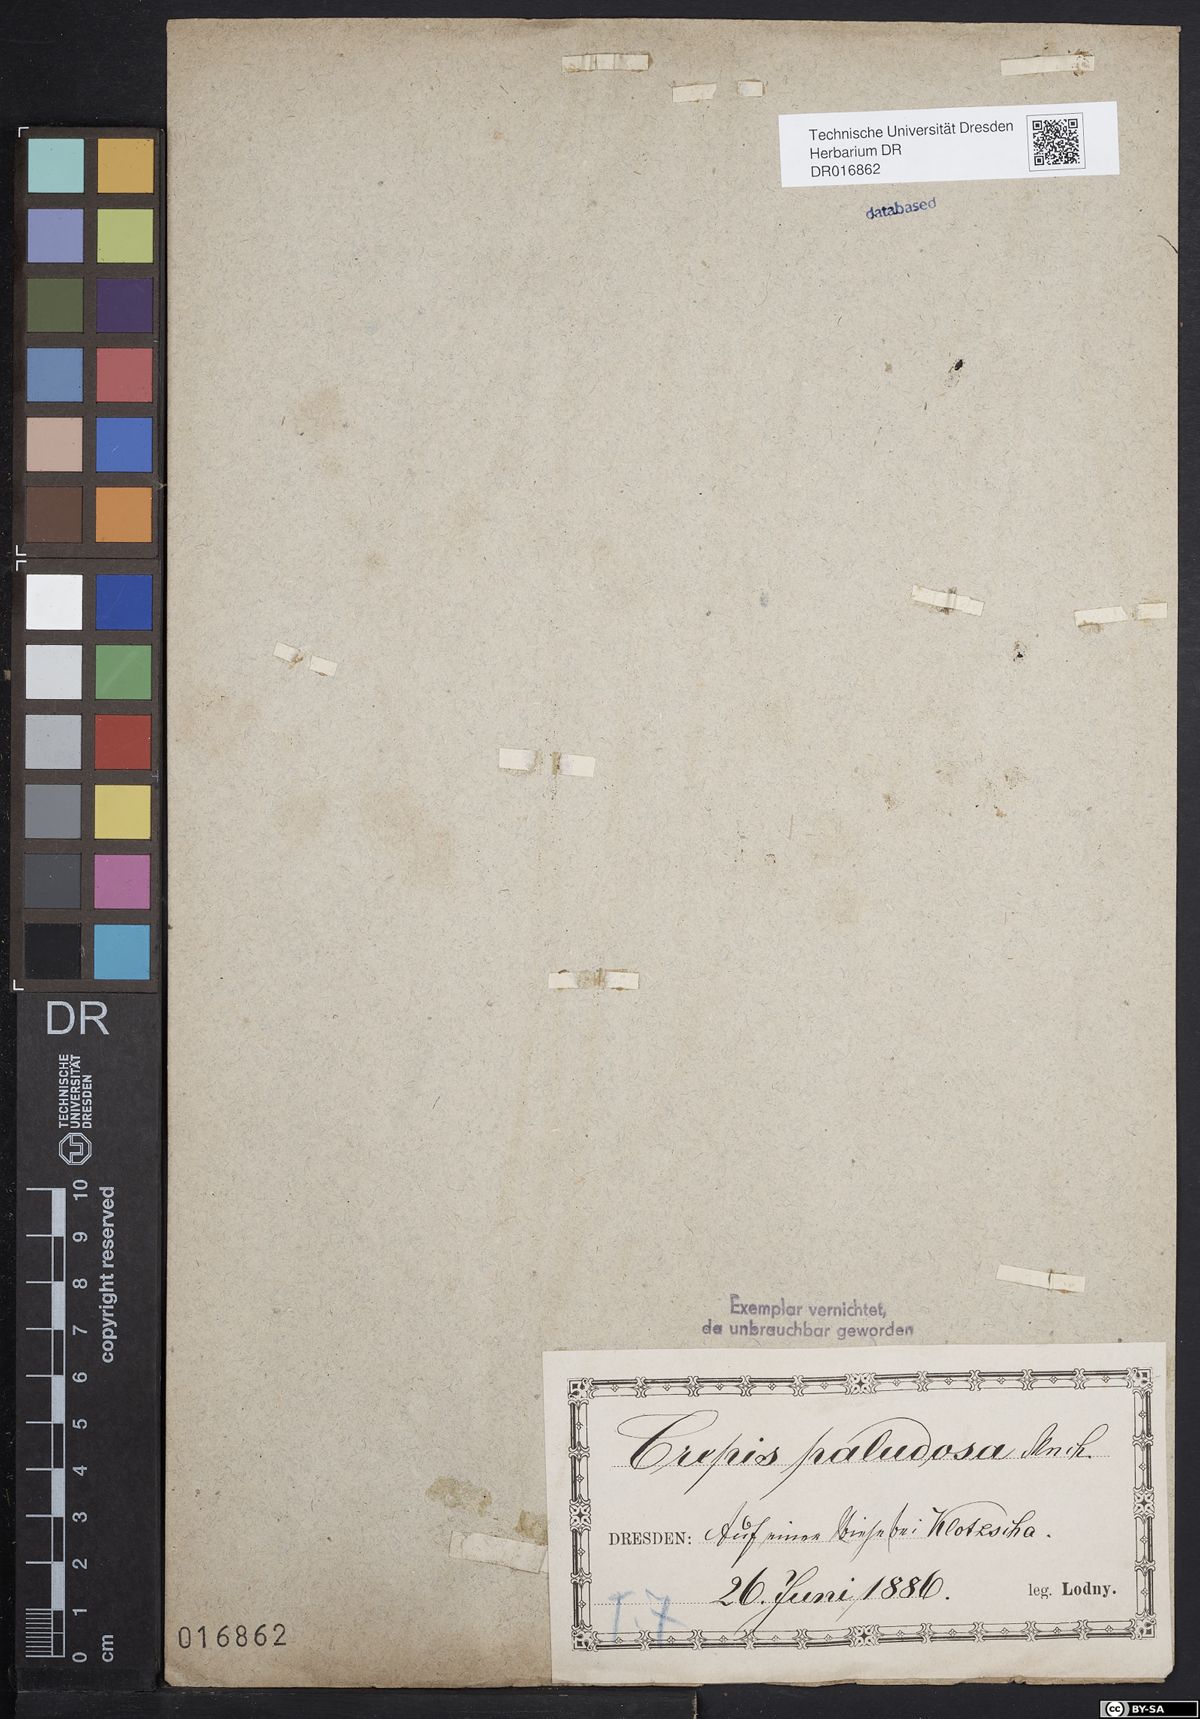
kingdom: Plantae
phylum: Tracheophyta
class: Magnoliopsida
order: Asterales
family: Asteraceae
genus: Crepis
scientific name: Crepis paludosa
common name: Marsh hawk's-beard
